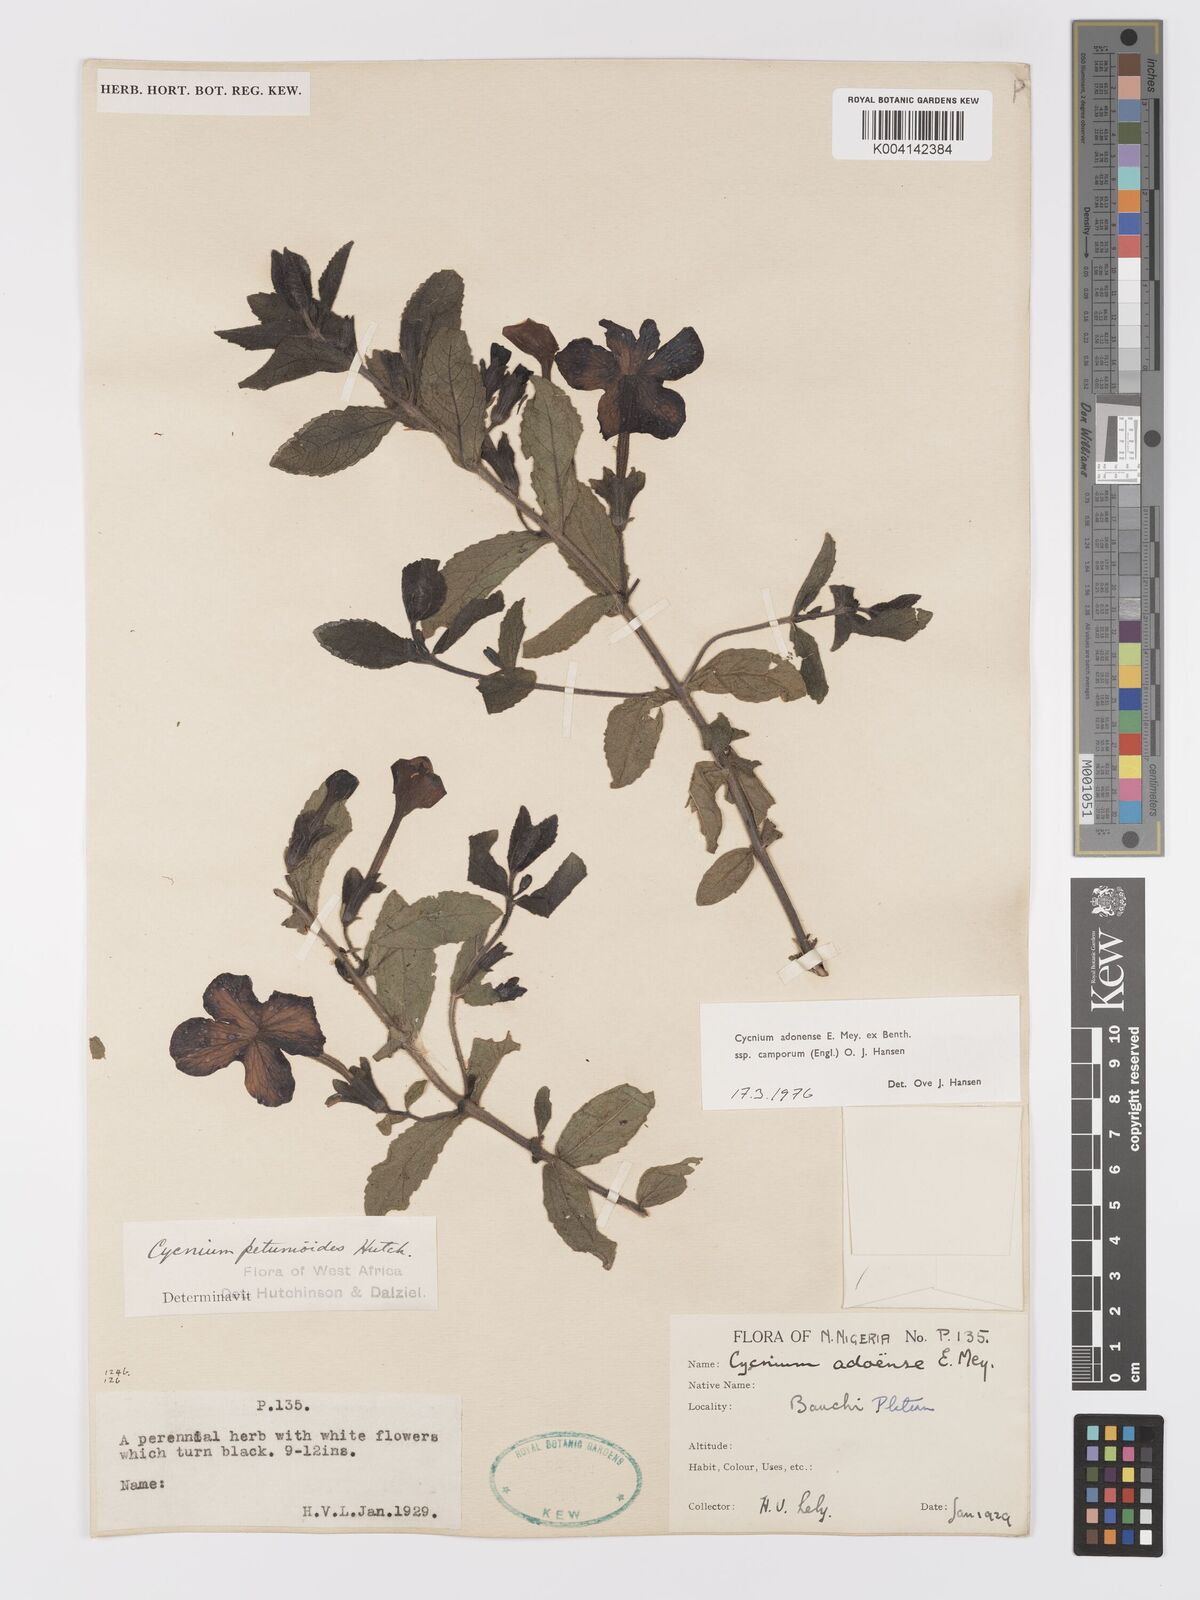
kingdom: Plantae
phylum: Tracheophyta
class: Magnoliopsida
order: Lamiales
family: Orobanchaceae
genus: Cycnium
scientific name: Cycnium adoense
